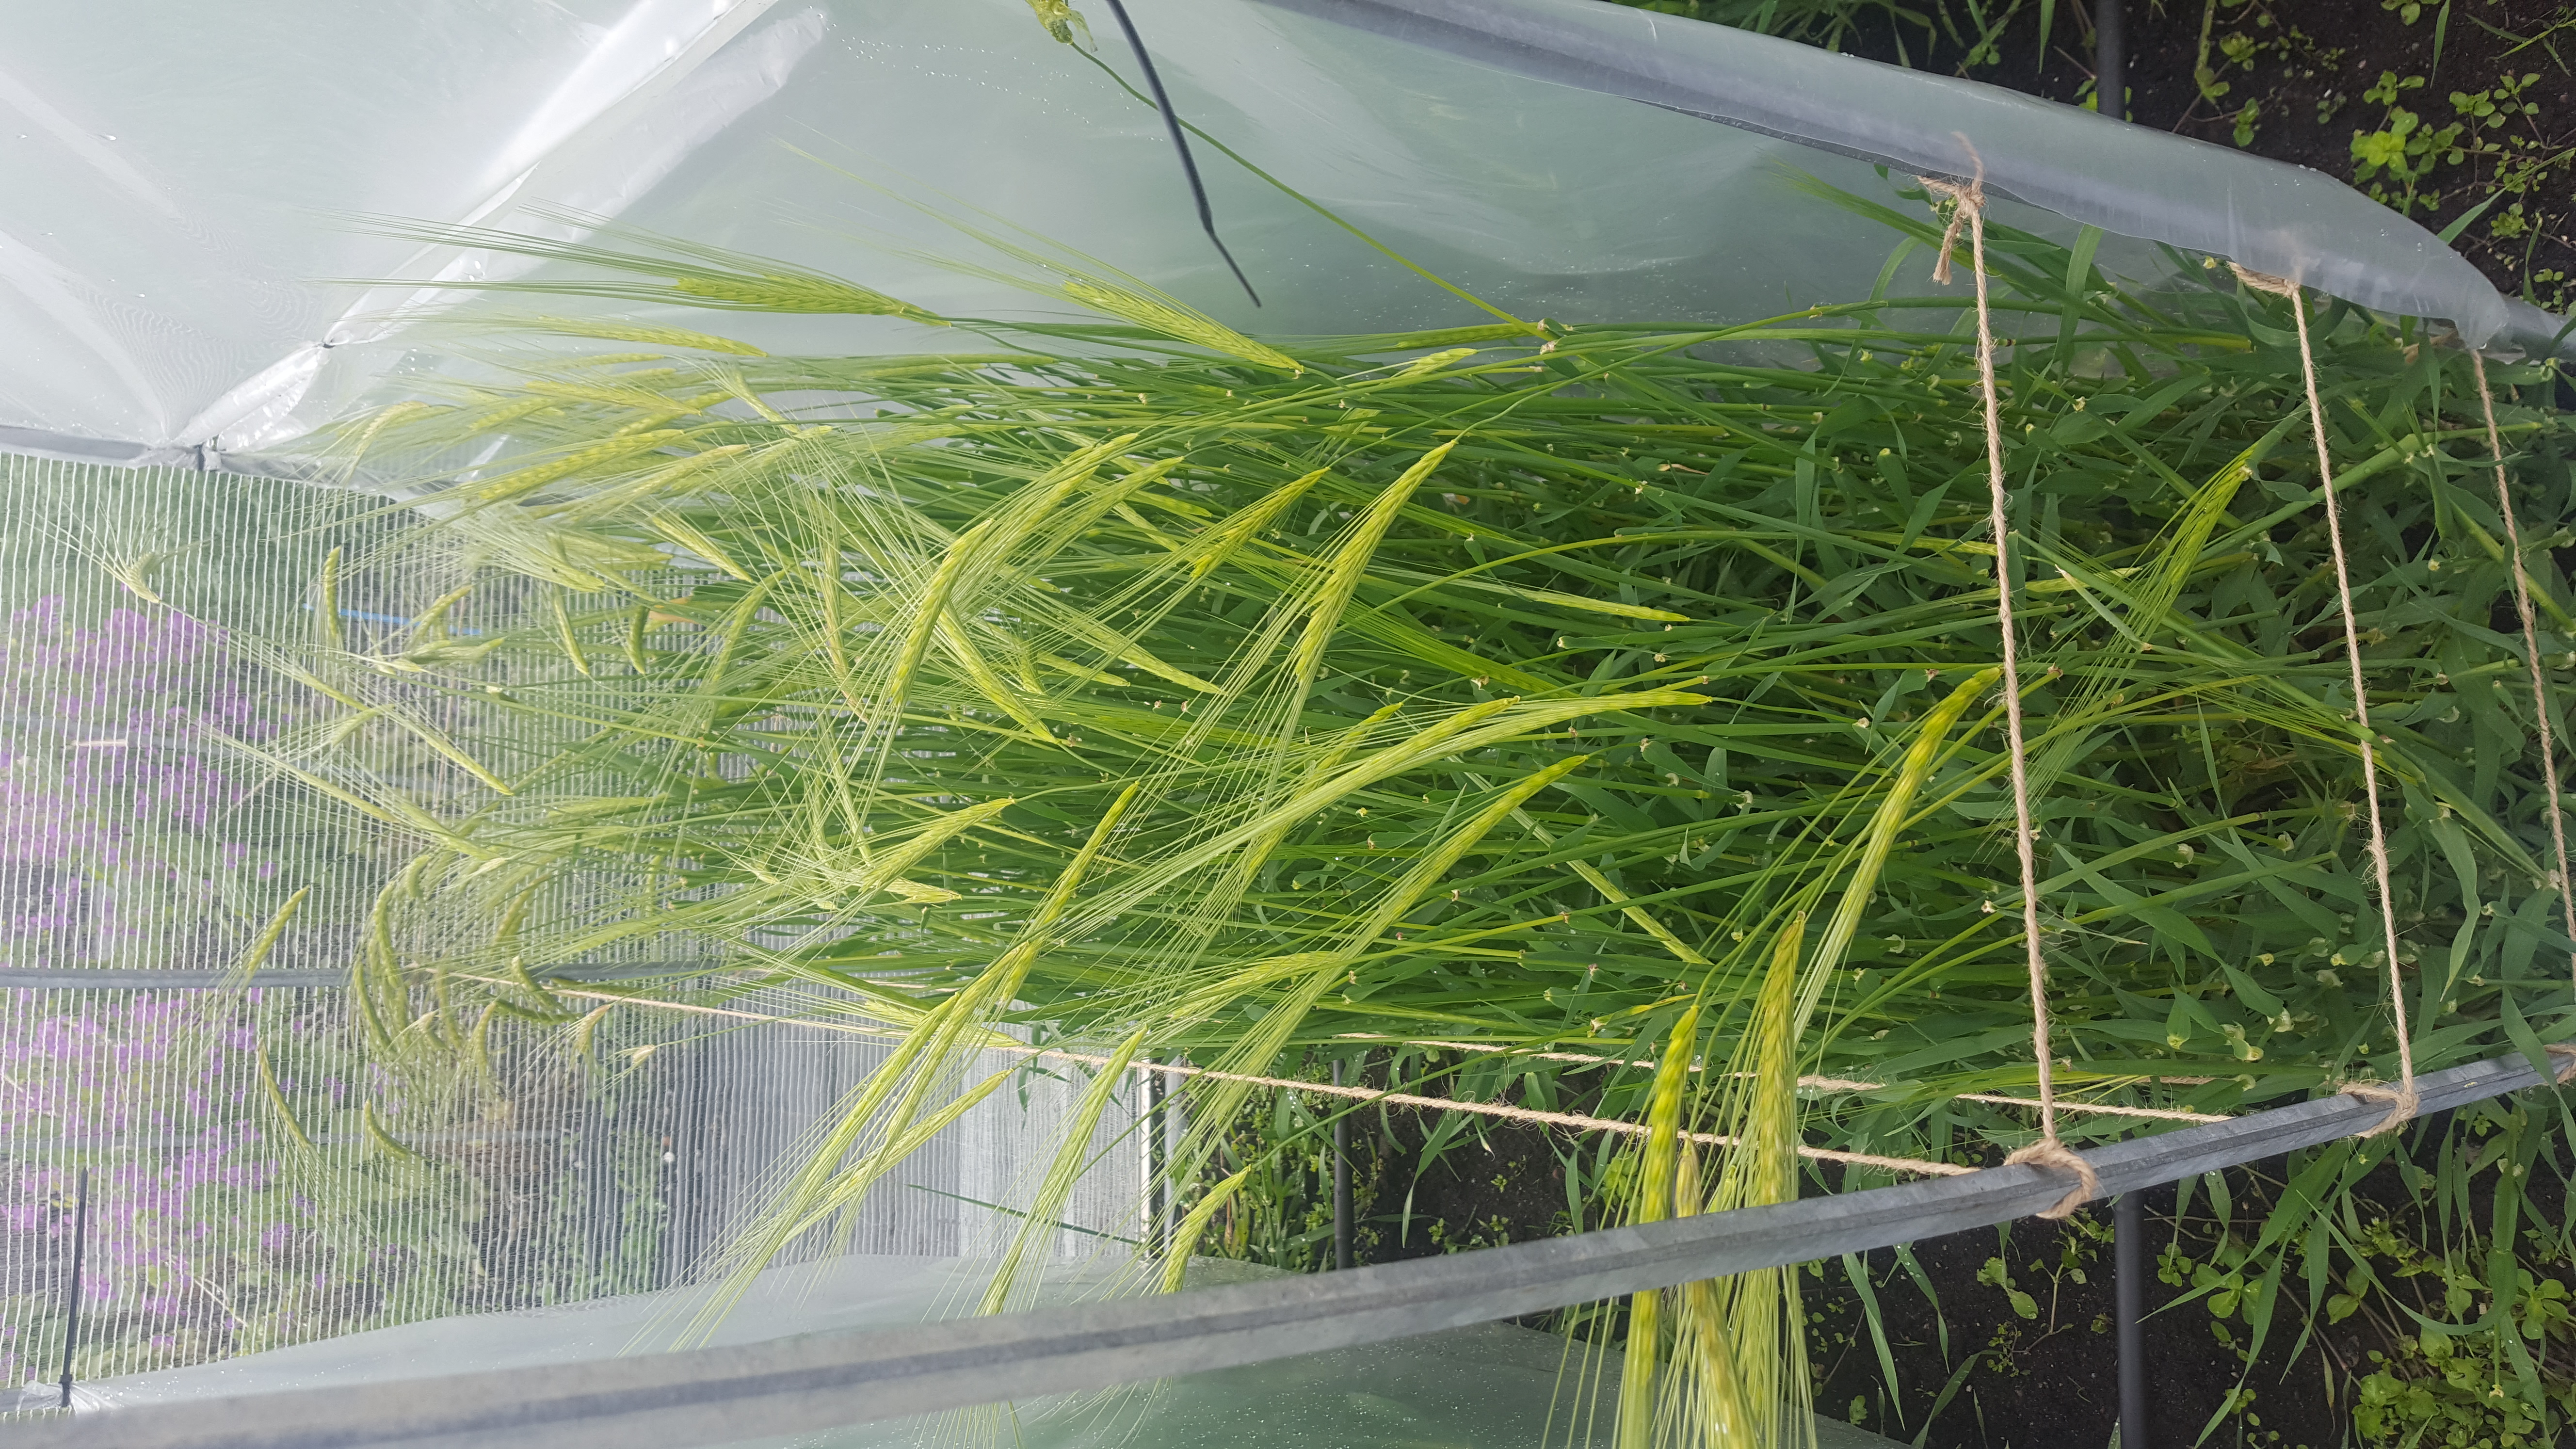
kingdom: Plantae
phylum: Tracheophyta
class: Liliopsida
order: Poales
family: Poaceae
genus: Hordeum
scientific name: Hordeum spontaneum
